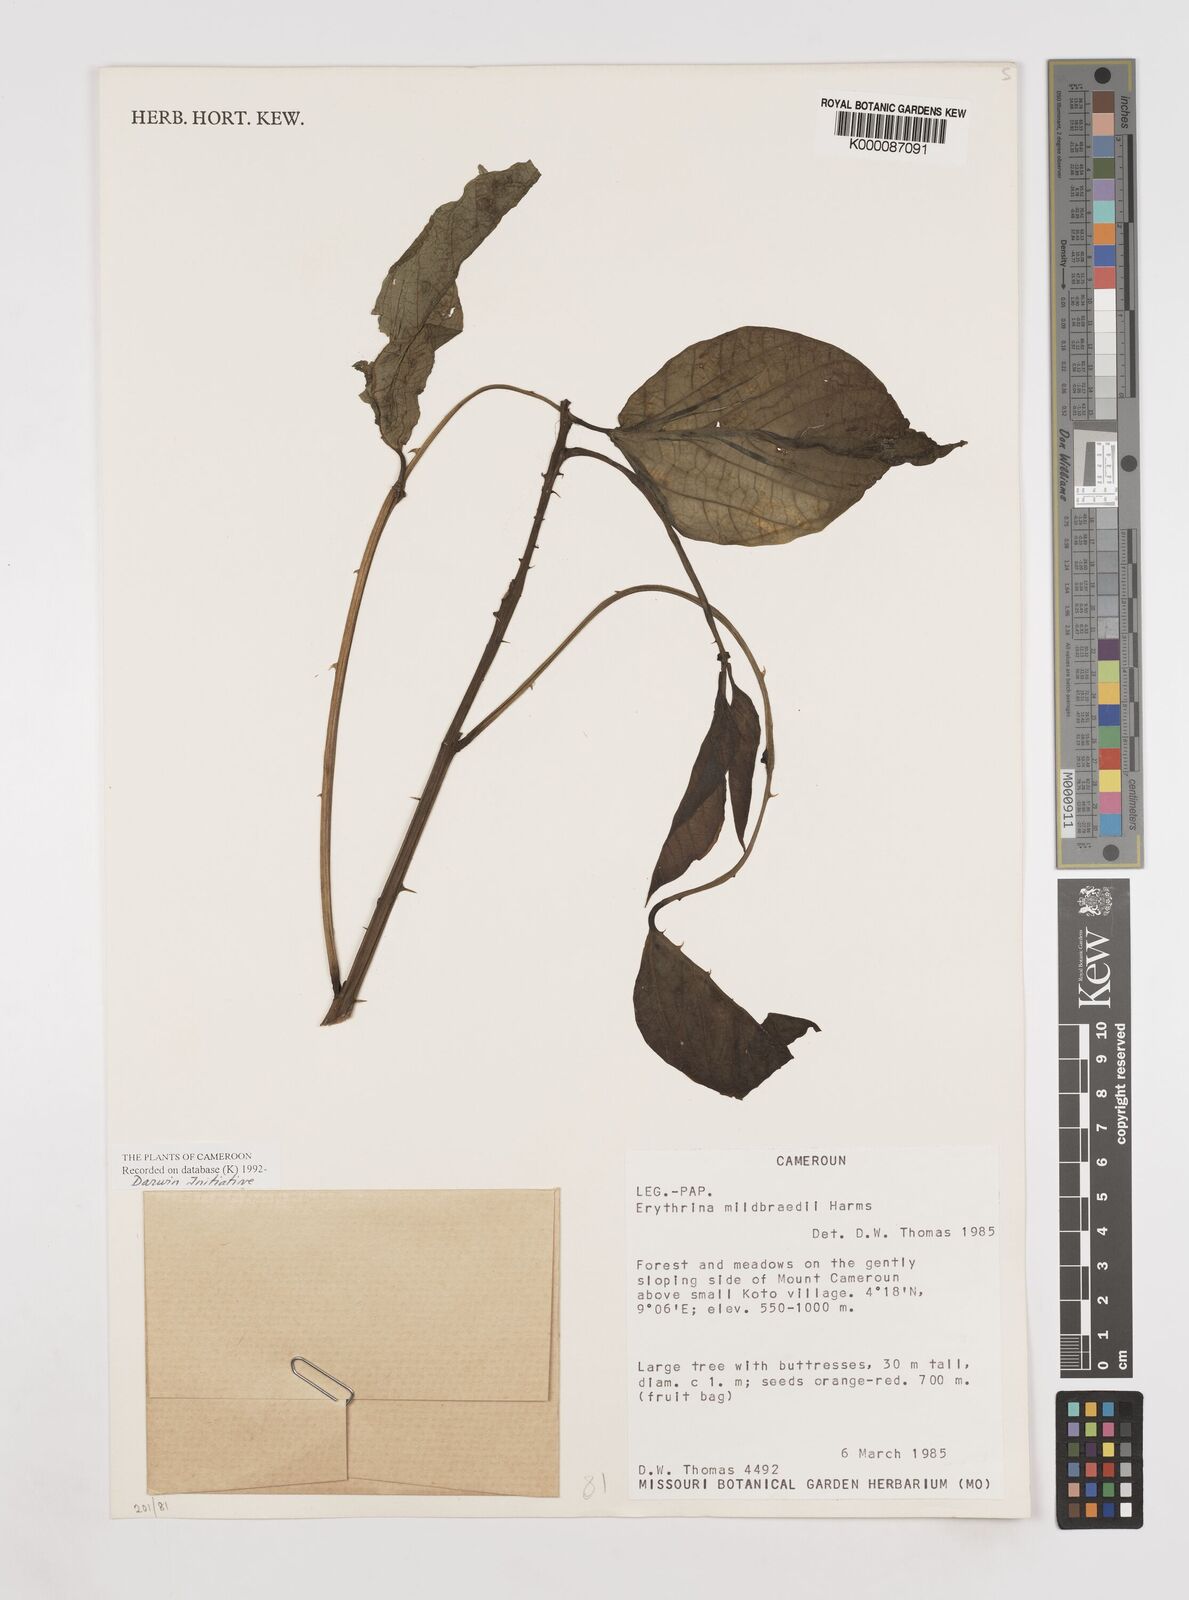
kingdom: Plantae
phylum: Tracheophyta
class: Magnoliopsida
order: Fabales
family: Fabaceae
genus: Erythrina
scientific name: Erythrina mildbraedii
